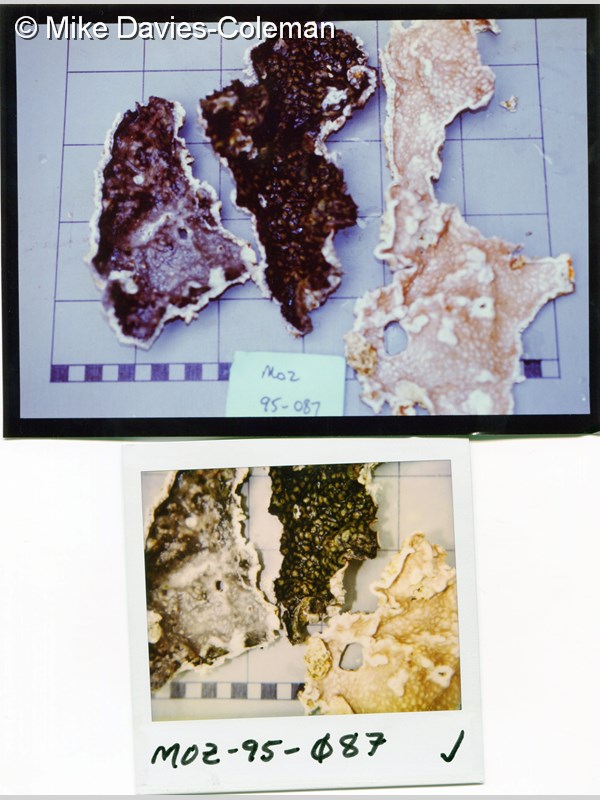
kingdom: Animalia
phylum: Chordata
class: Ascidiacea
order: Aplousobranchia
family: Didemnidae
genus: Didemnum
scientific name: Didemnum
